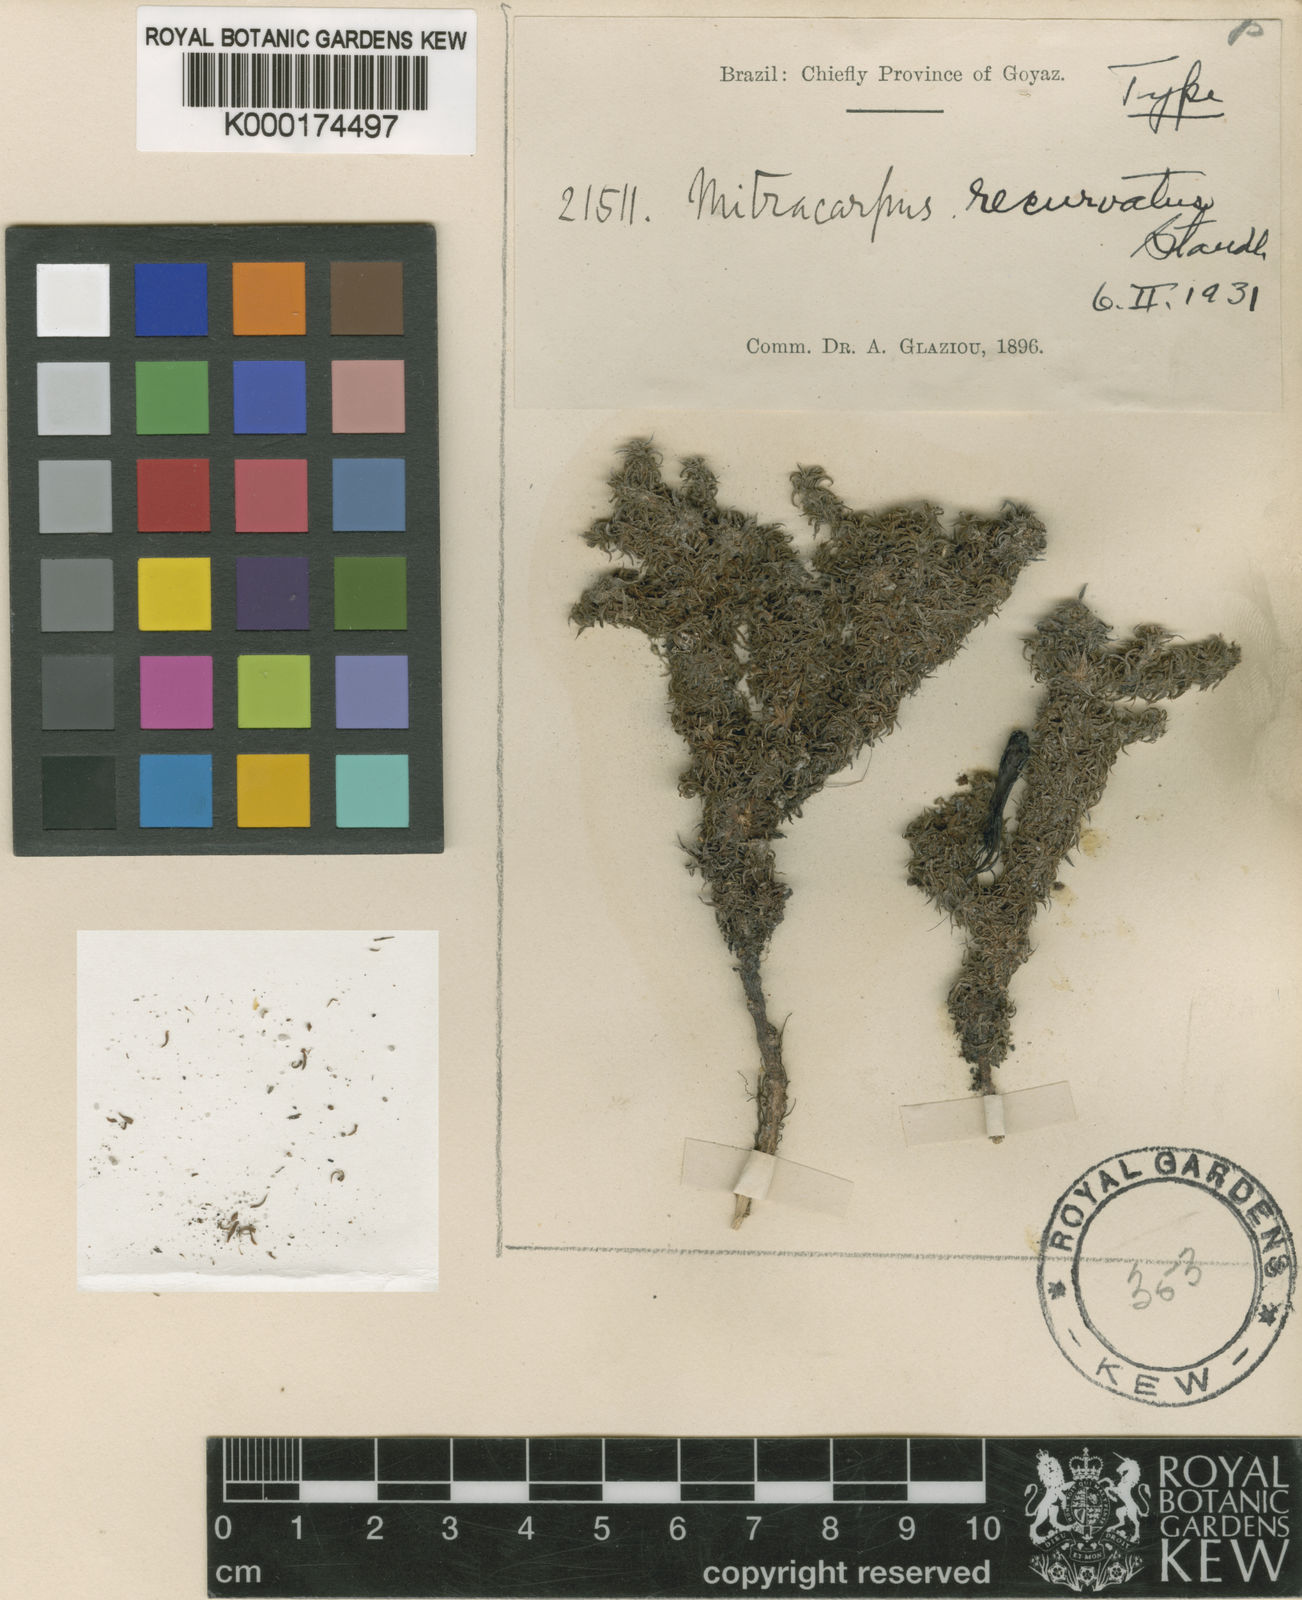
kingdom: Plantae
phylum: Tracheophyta
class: Magnoliopsida
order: Gentianales
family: Rubiaceae
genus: Mitracarpus
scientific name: Mitracarpus recurvatus
